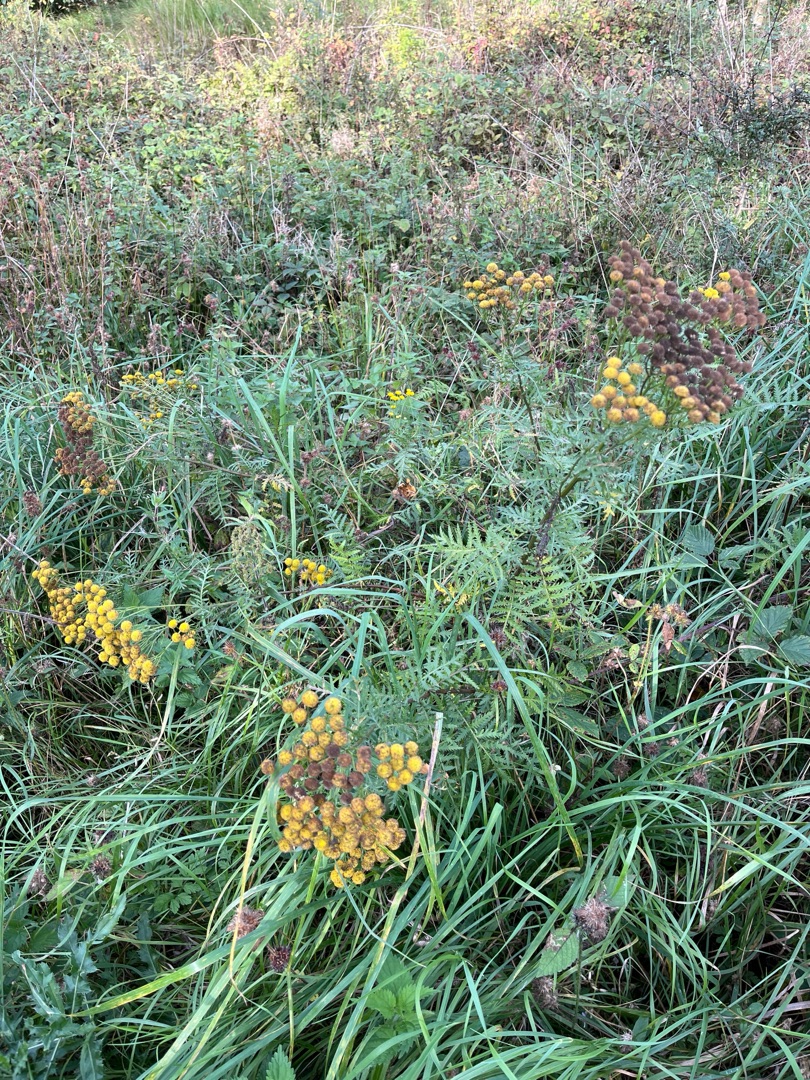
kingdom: Plantae
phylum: Tracheophyta
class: Magnoliopsida
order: Asterales
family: Asteraceae
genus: Tanacetum
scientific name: Tanacetum vulgare
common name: Rejnfan
